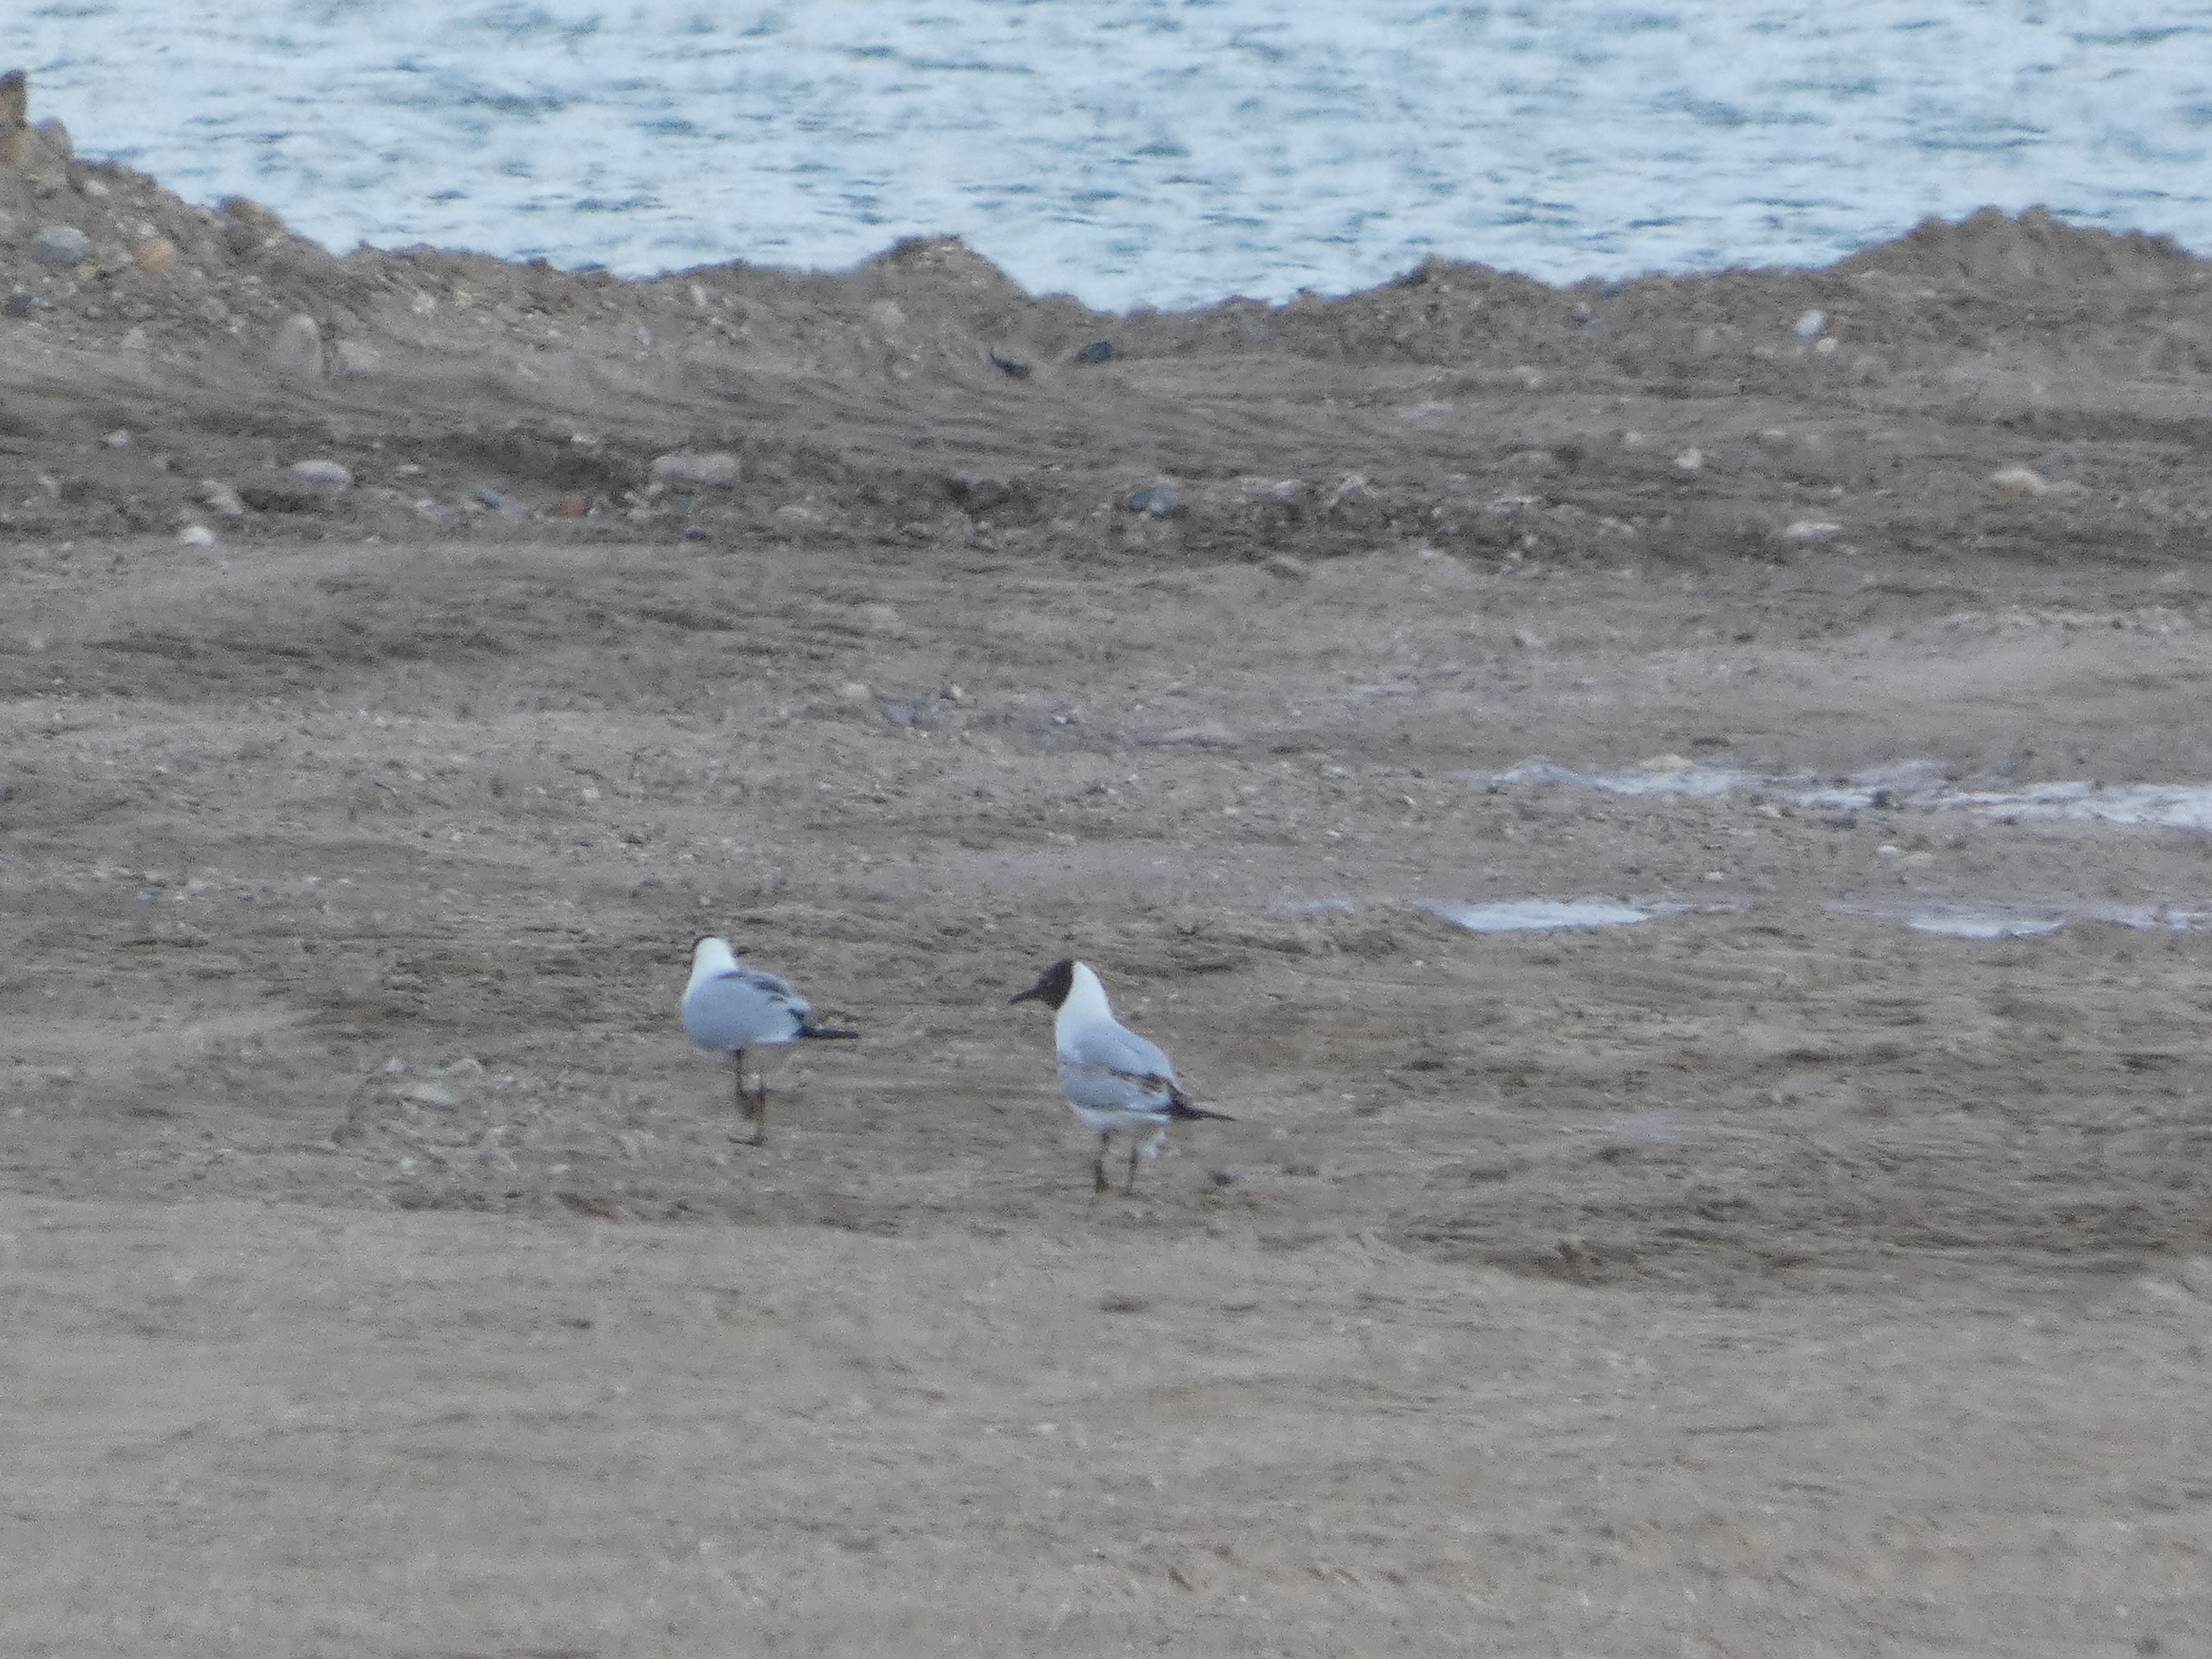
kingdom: Animalia
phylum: Chordata
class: Aves
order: Charadriiformes
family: Laridae
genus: Chroicocephalus
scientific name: Chroicocephalus ridibundus
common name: Hættemåge
